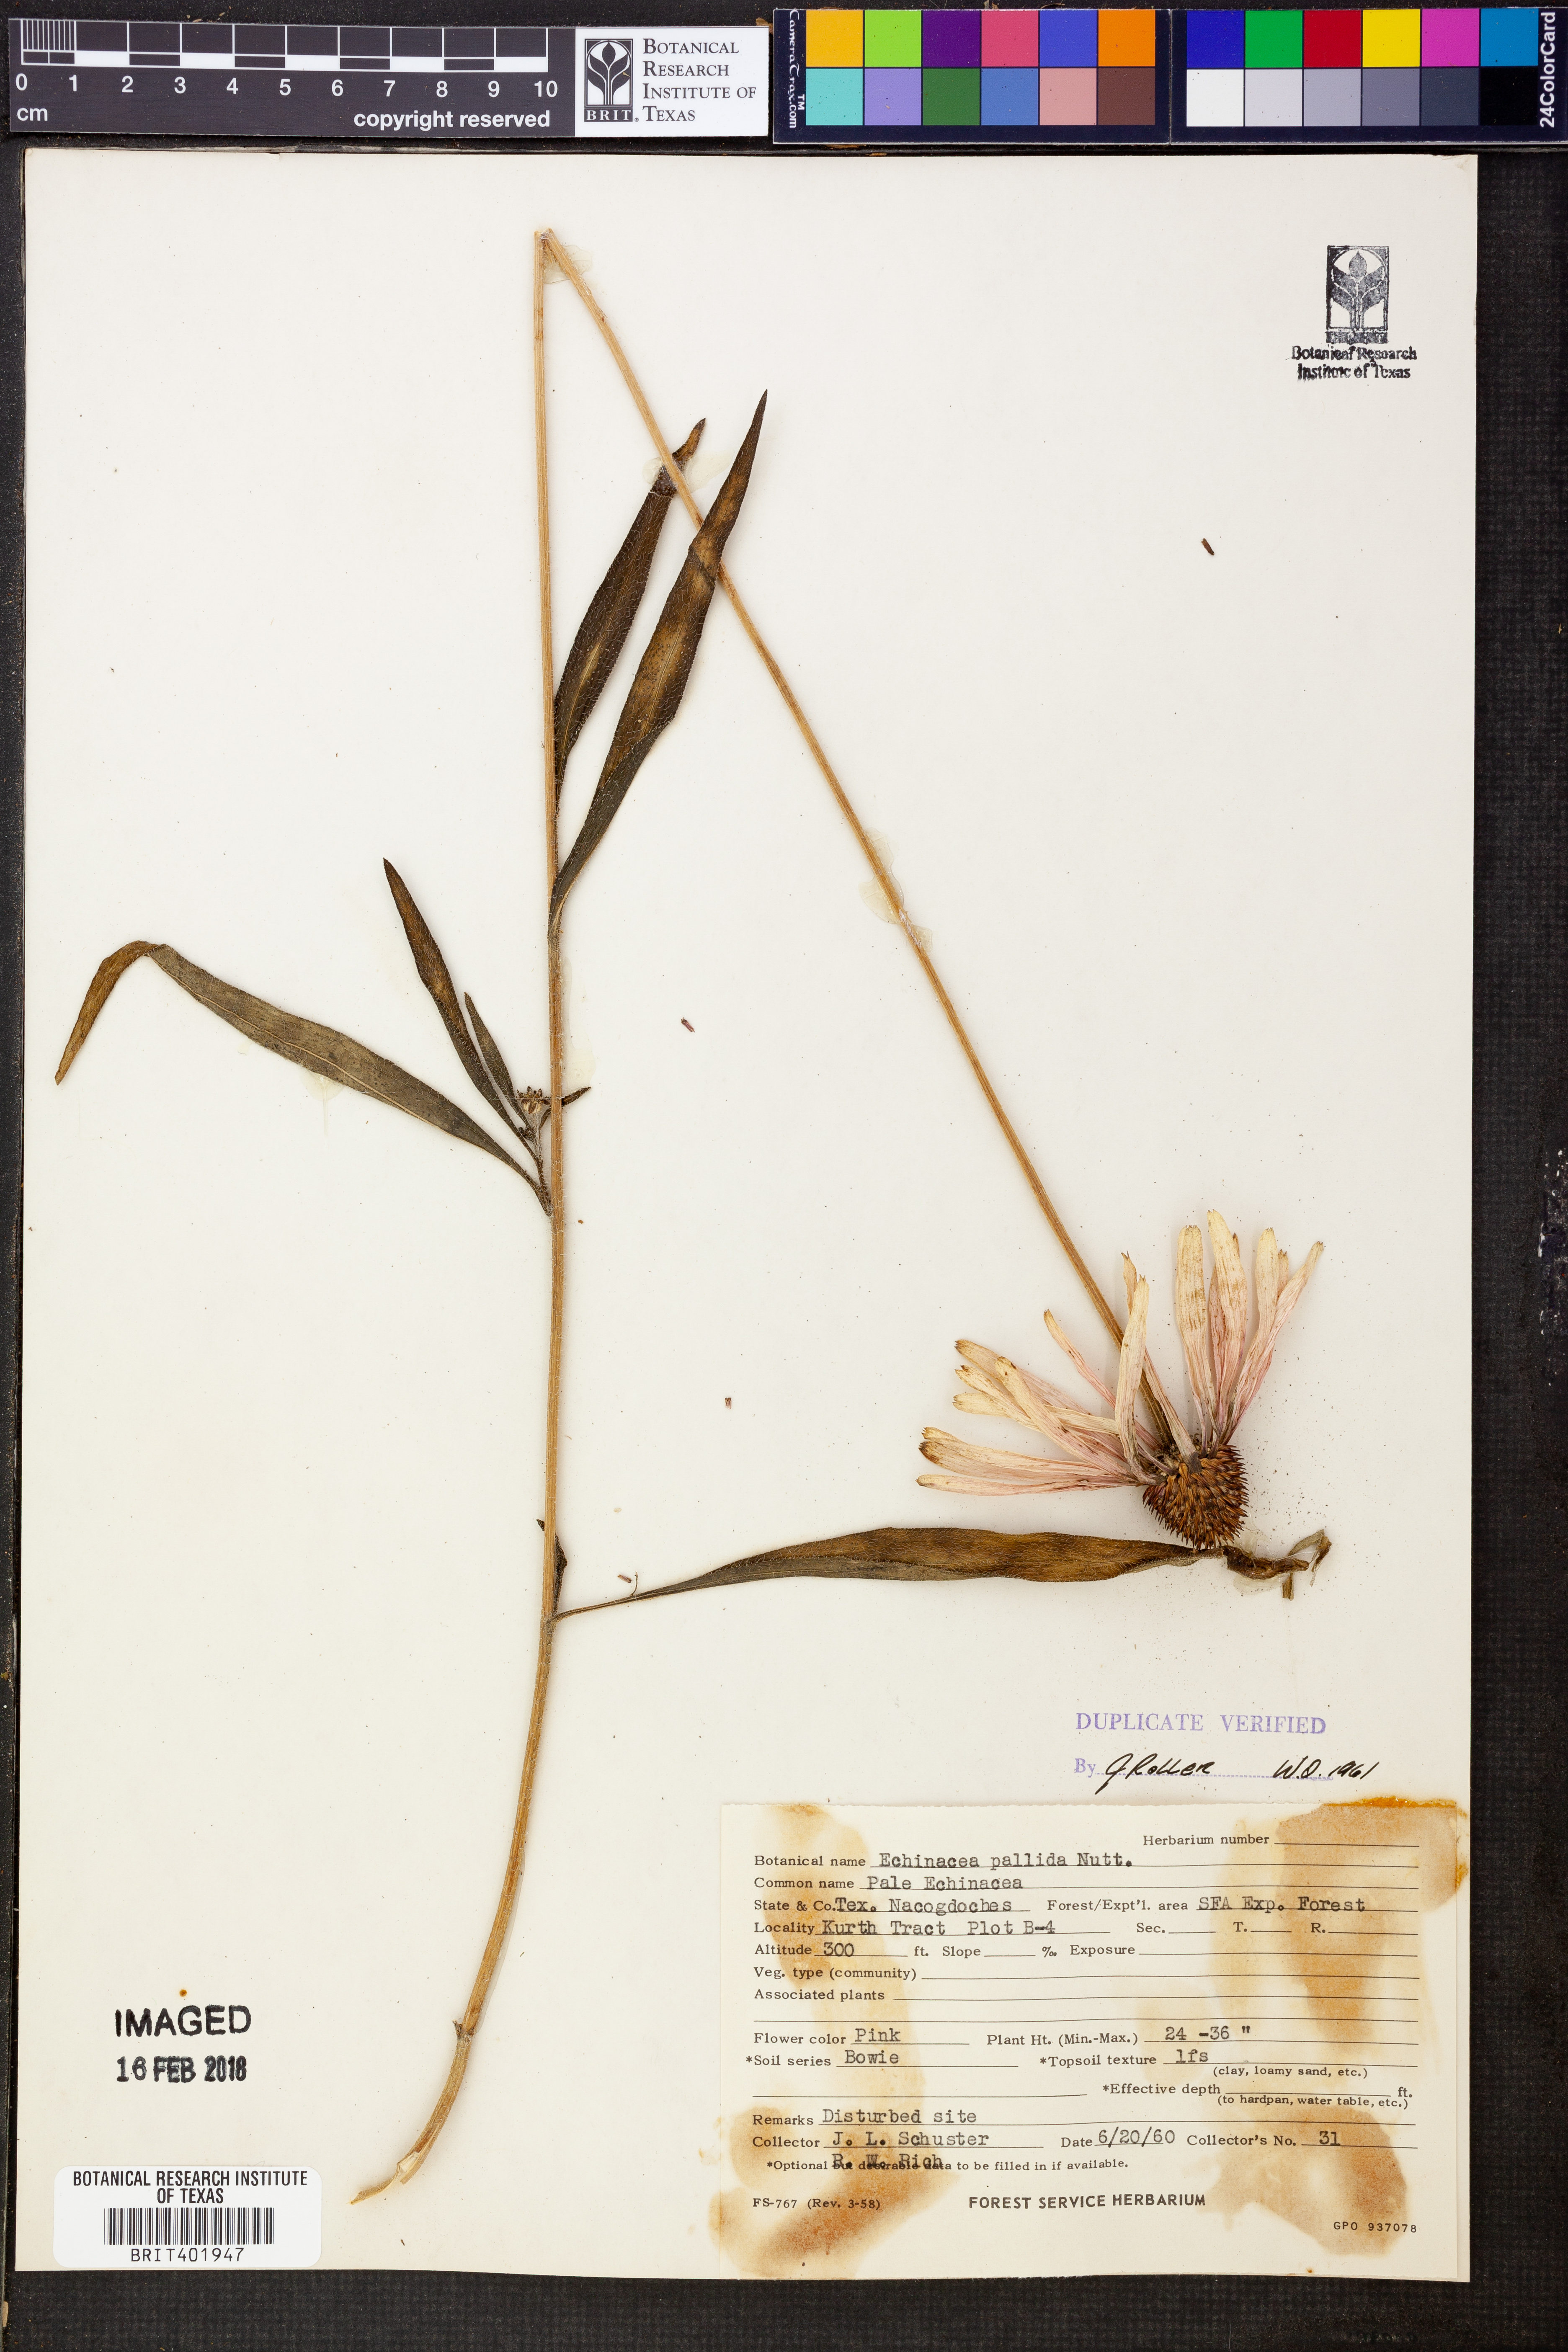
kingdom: Plantae
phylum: Tracheophyta
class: Magnoliopsida
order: Asterales
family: Asteraceae
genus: Echinacea
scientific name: Echinacea pallida
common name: Pale echinacea
